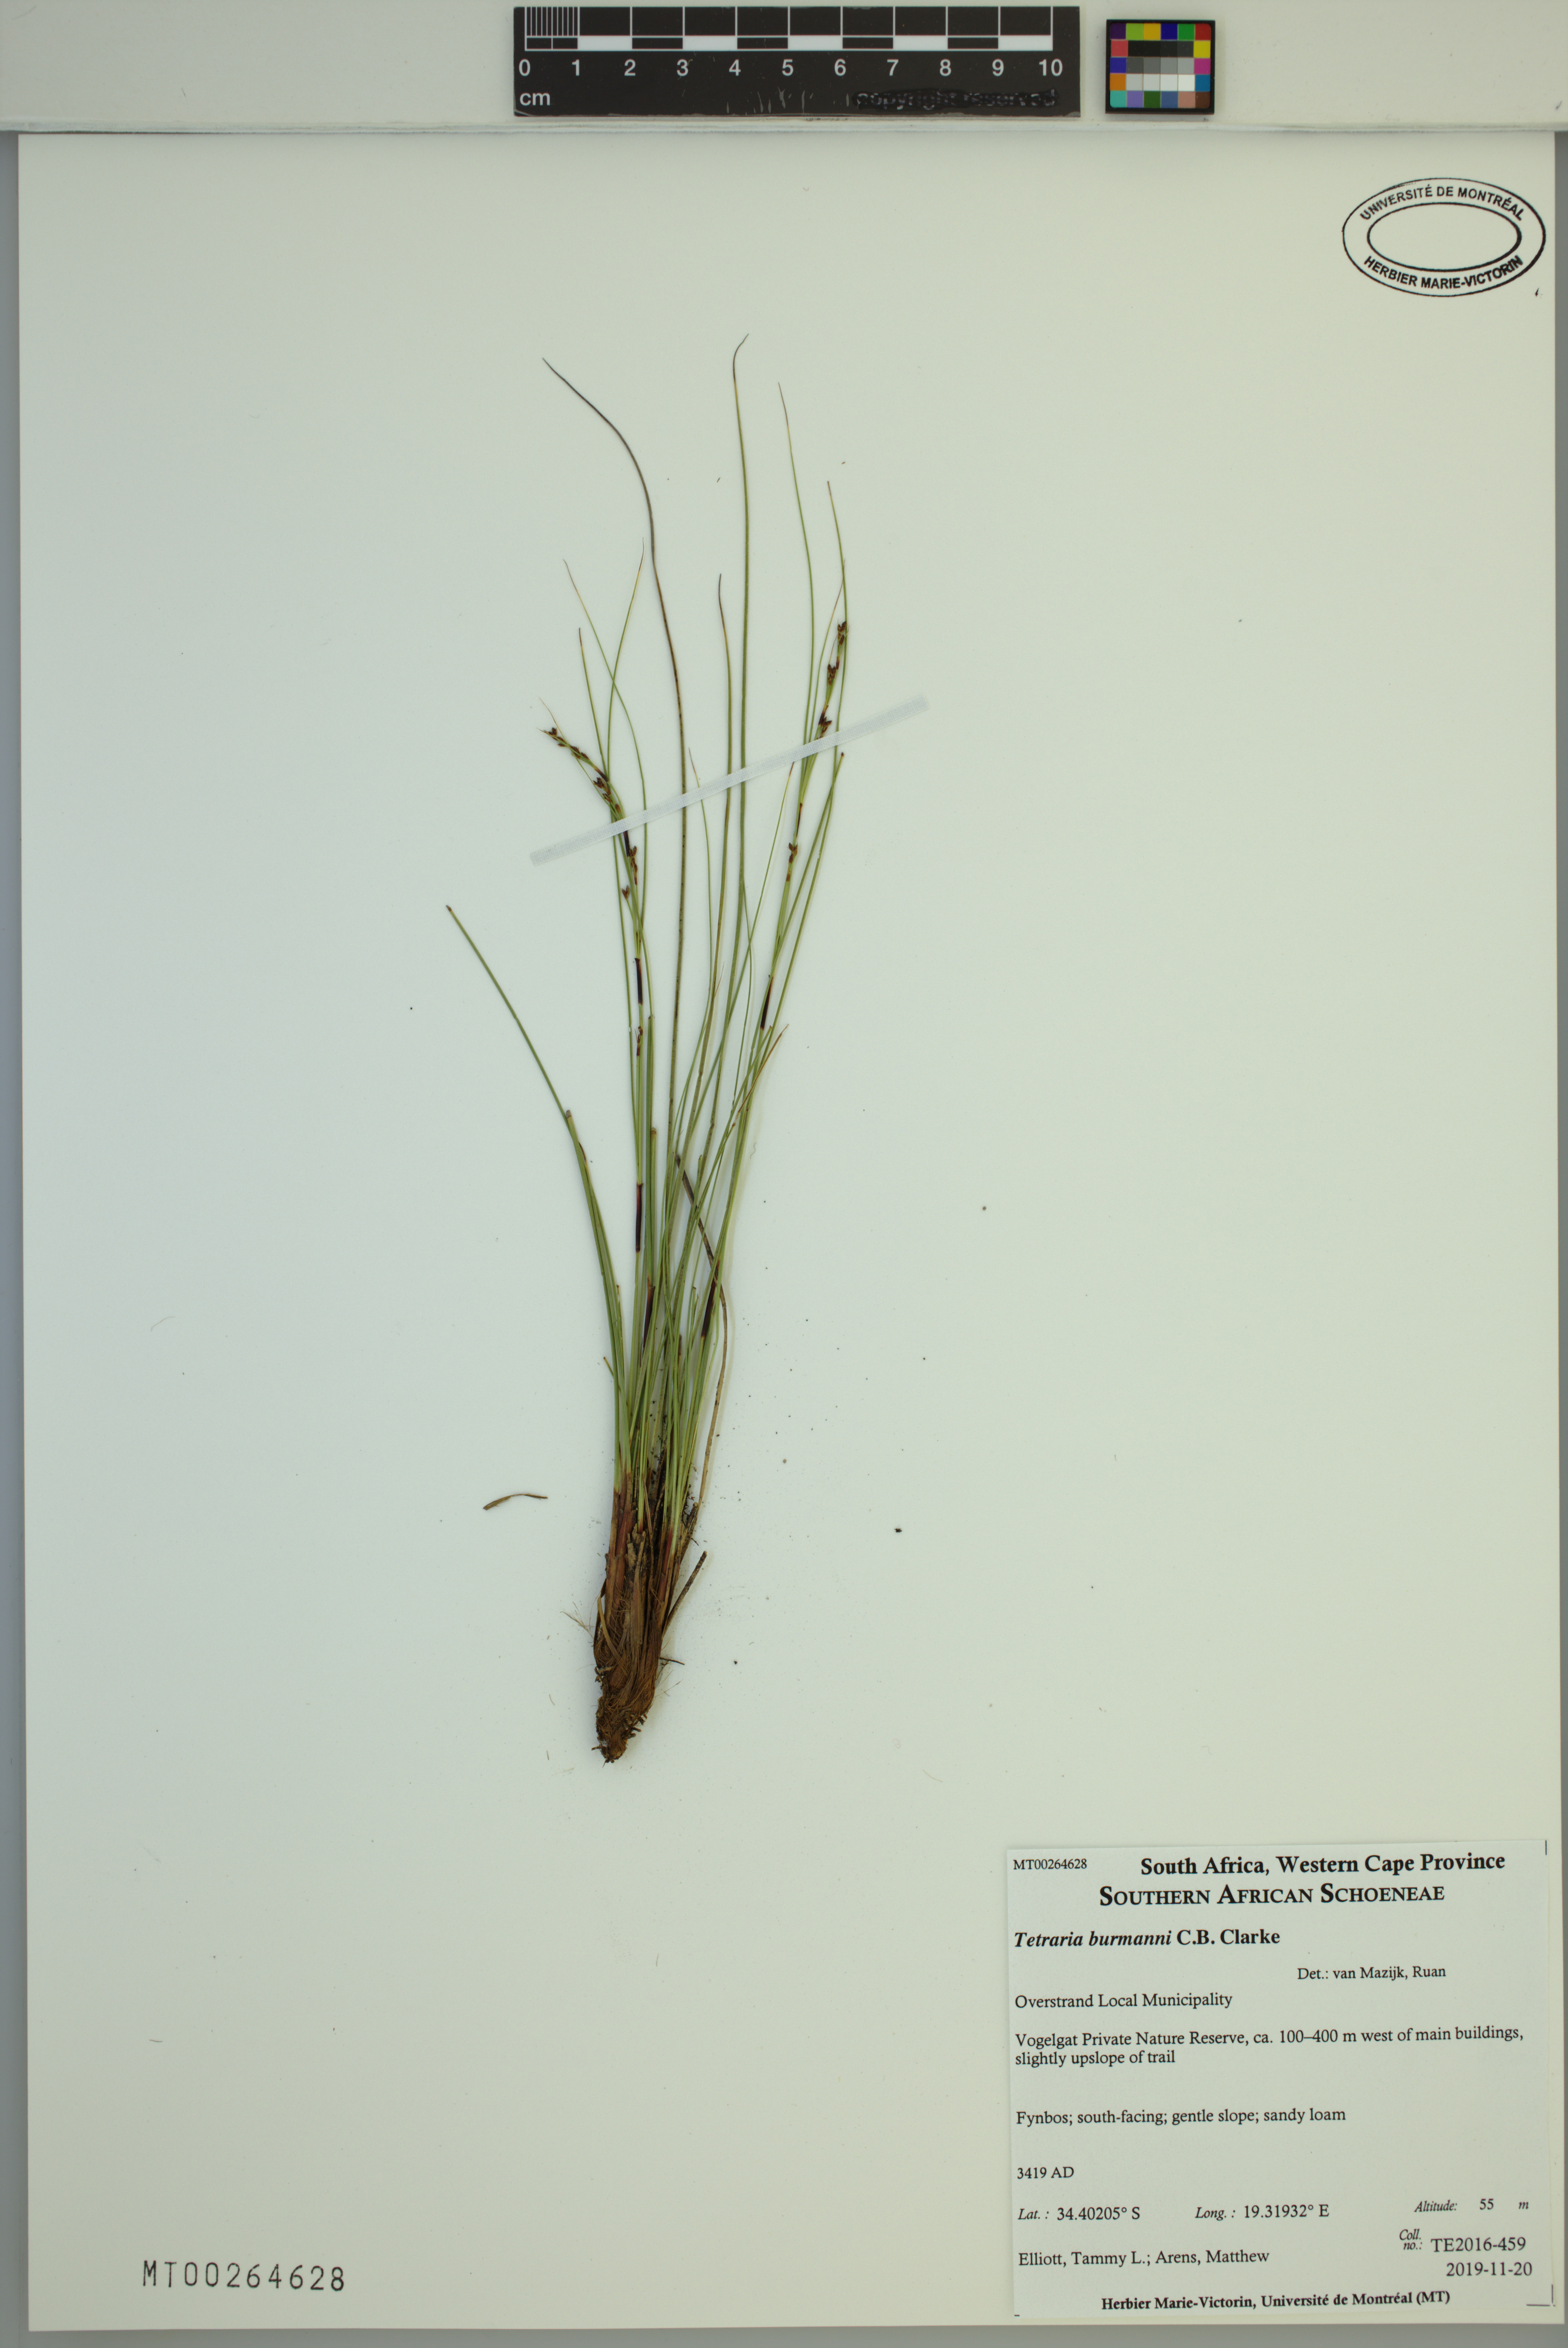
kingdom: Plantae
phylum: Tracheophyta
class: Liliopsida
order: Poales
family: Cyperaceae
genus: Tetraria
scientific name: Tetraria burmanni
